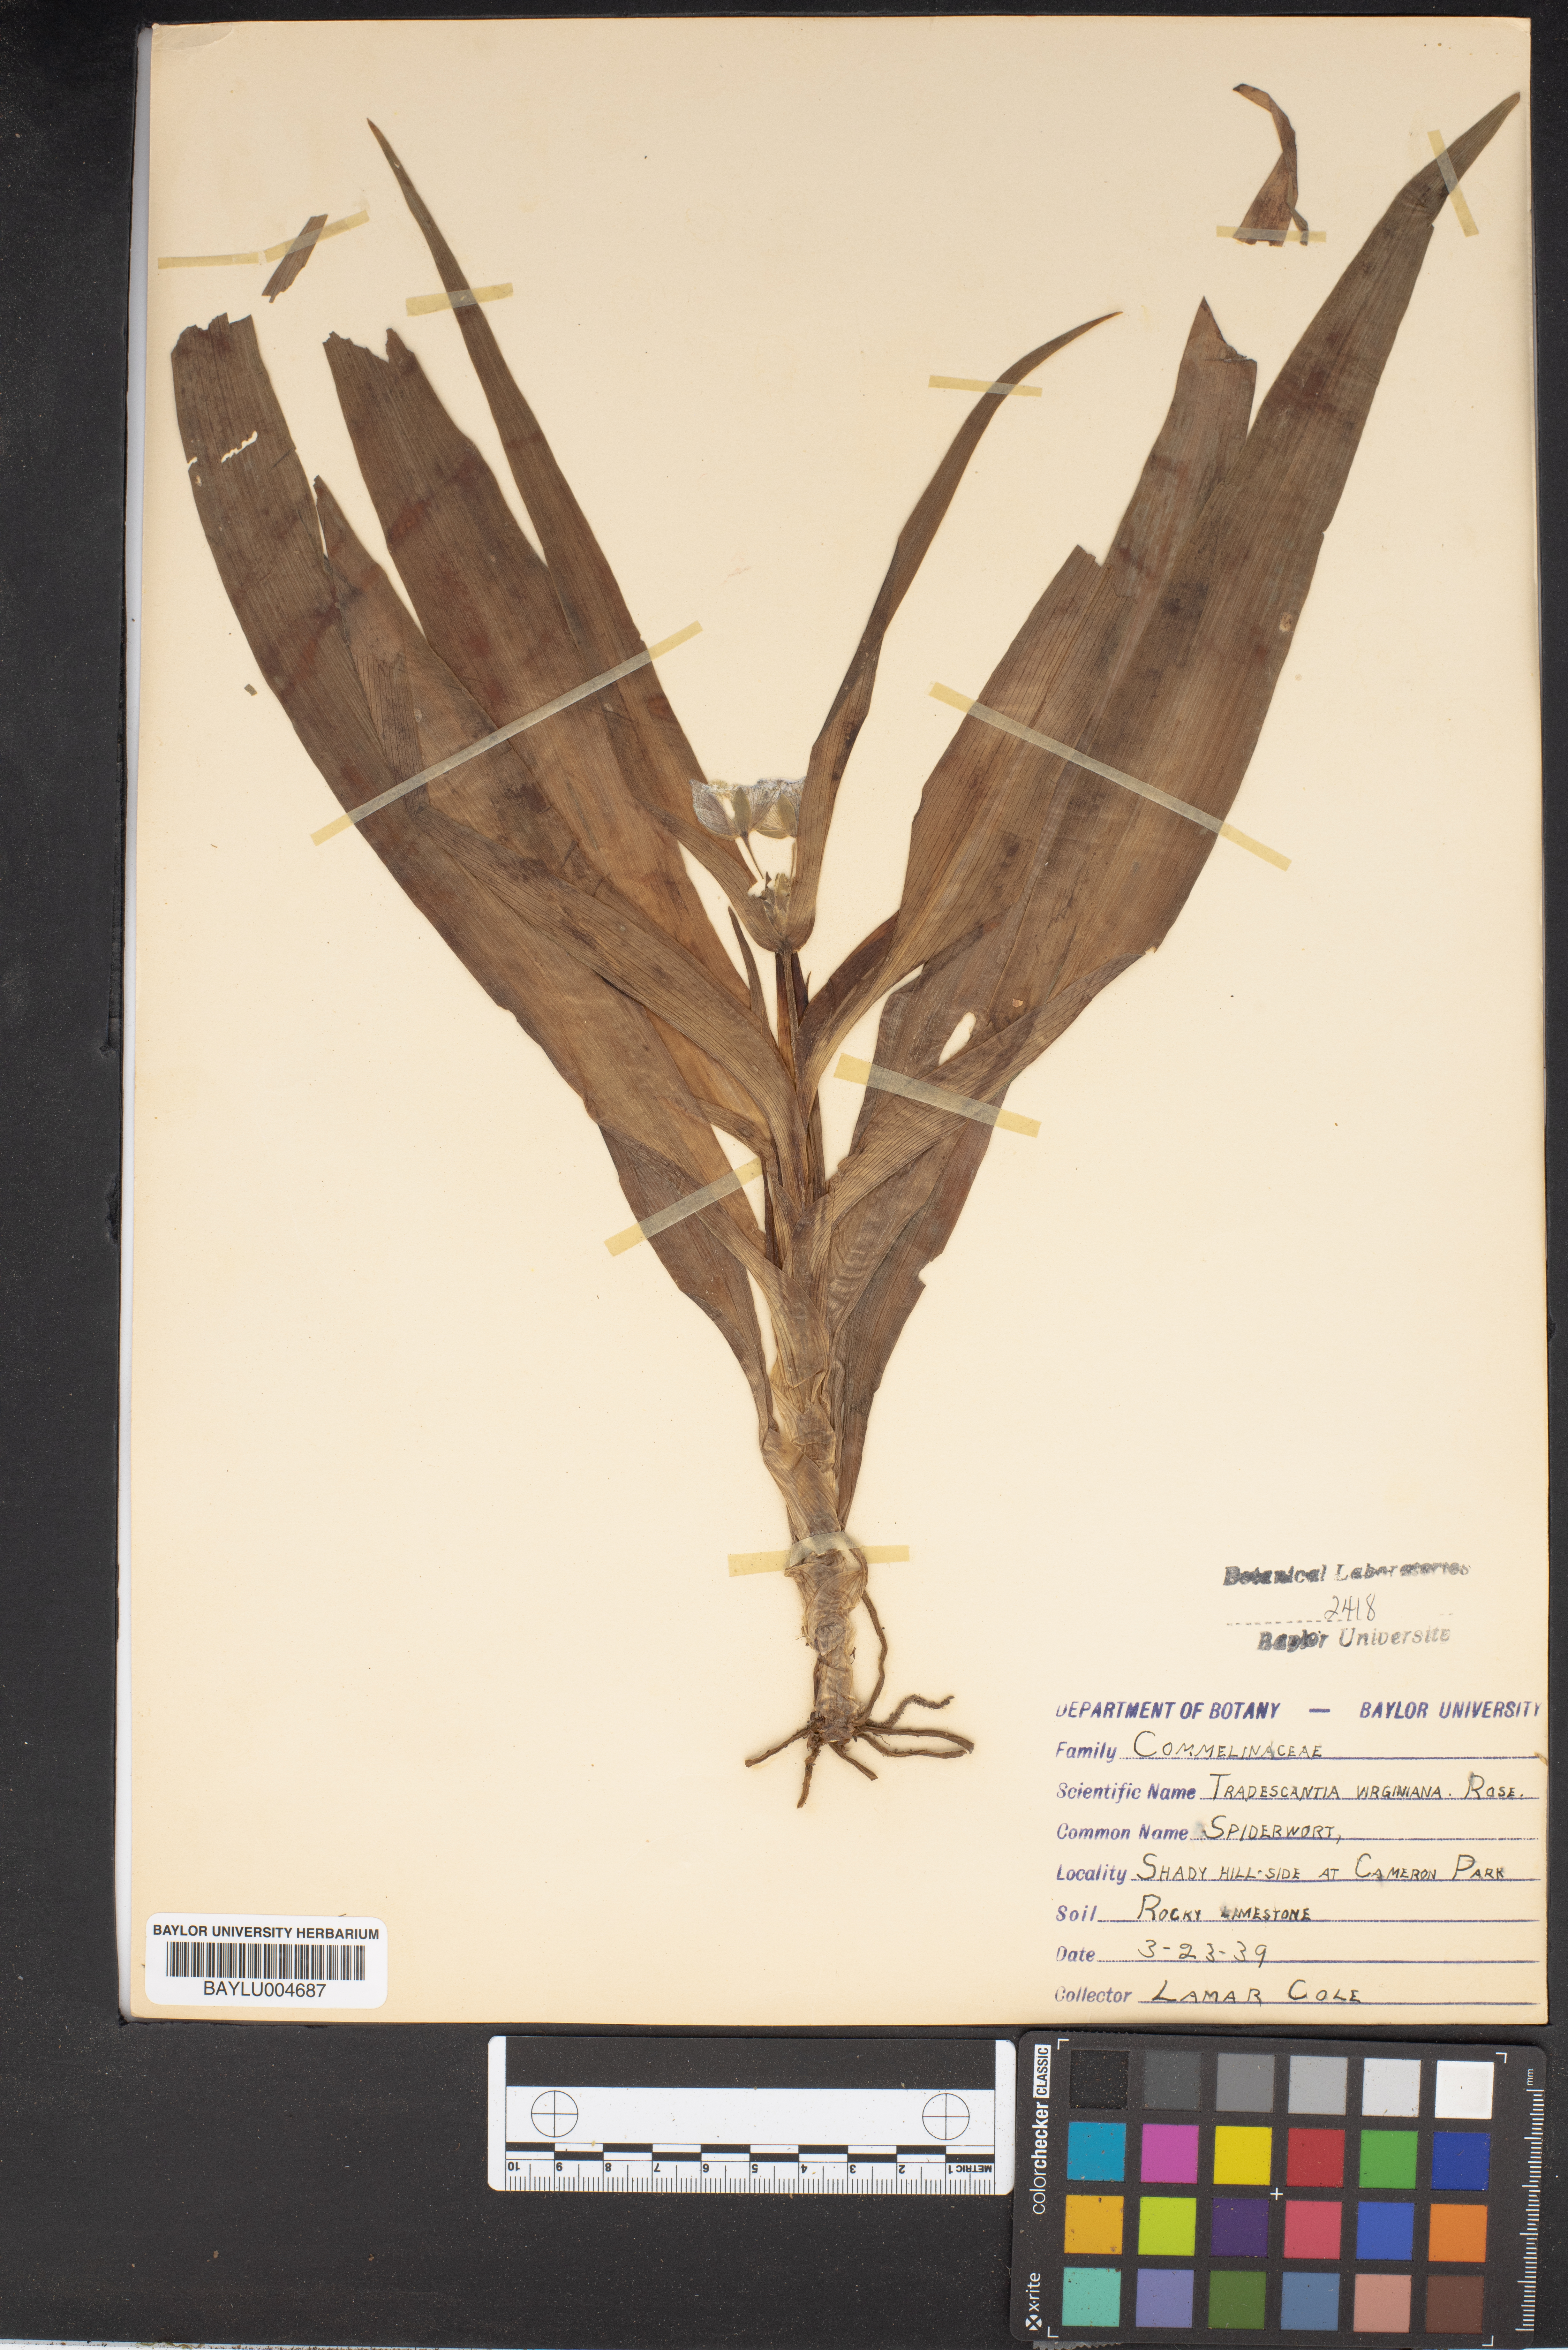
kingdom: Plantae
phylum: Tracheophyta
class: Liliopsida
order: Commelinales
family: Commelinaceae
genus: Tradescantia
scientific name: Tradescantia virginiana
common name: Spiderwort
